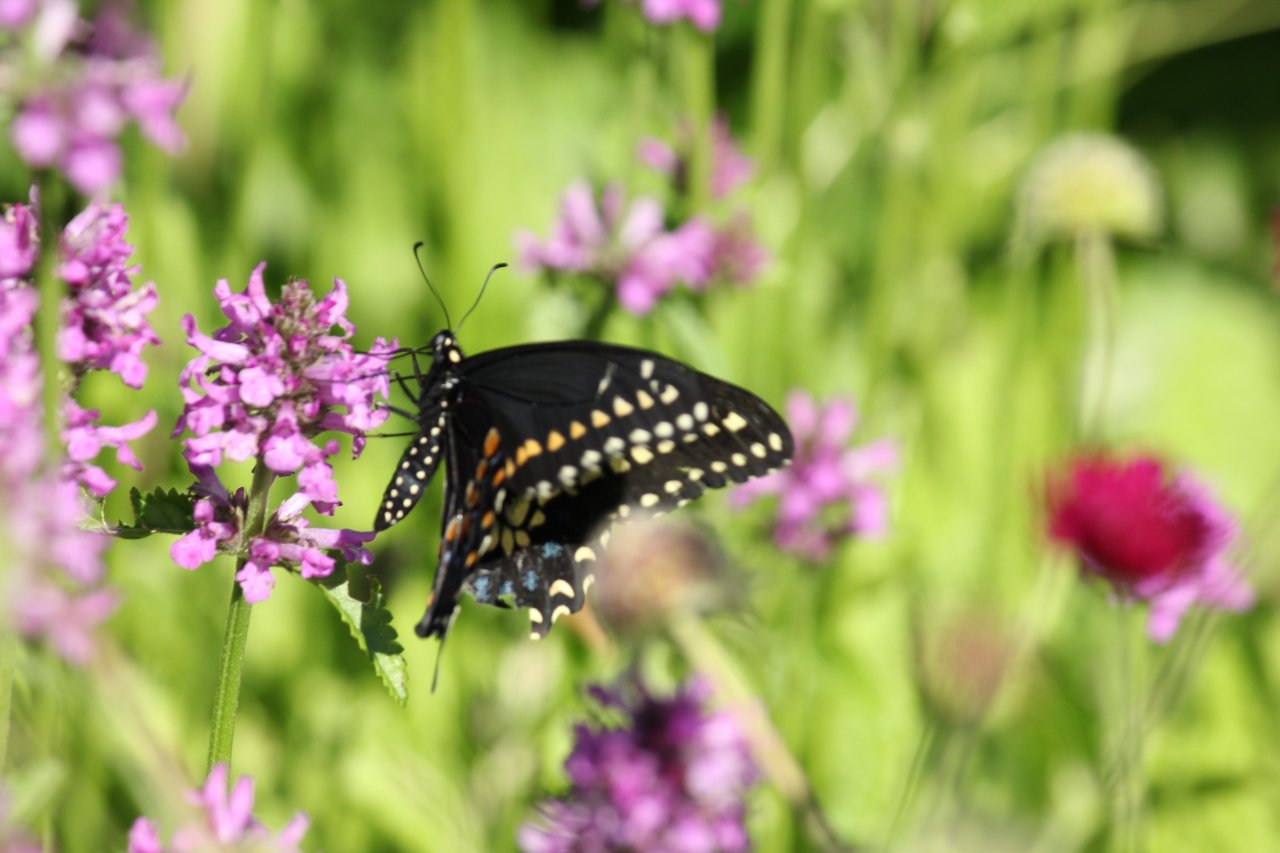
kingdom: Animalia
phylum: Arthropoda
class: Insecta
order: Lepidoptera
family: Papilionidae
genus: Papilio
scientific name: Papilio polyxenes
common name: Black Swallowtail
